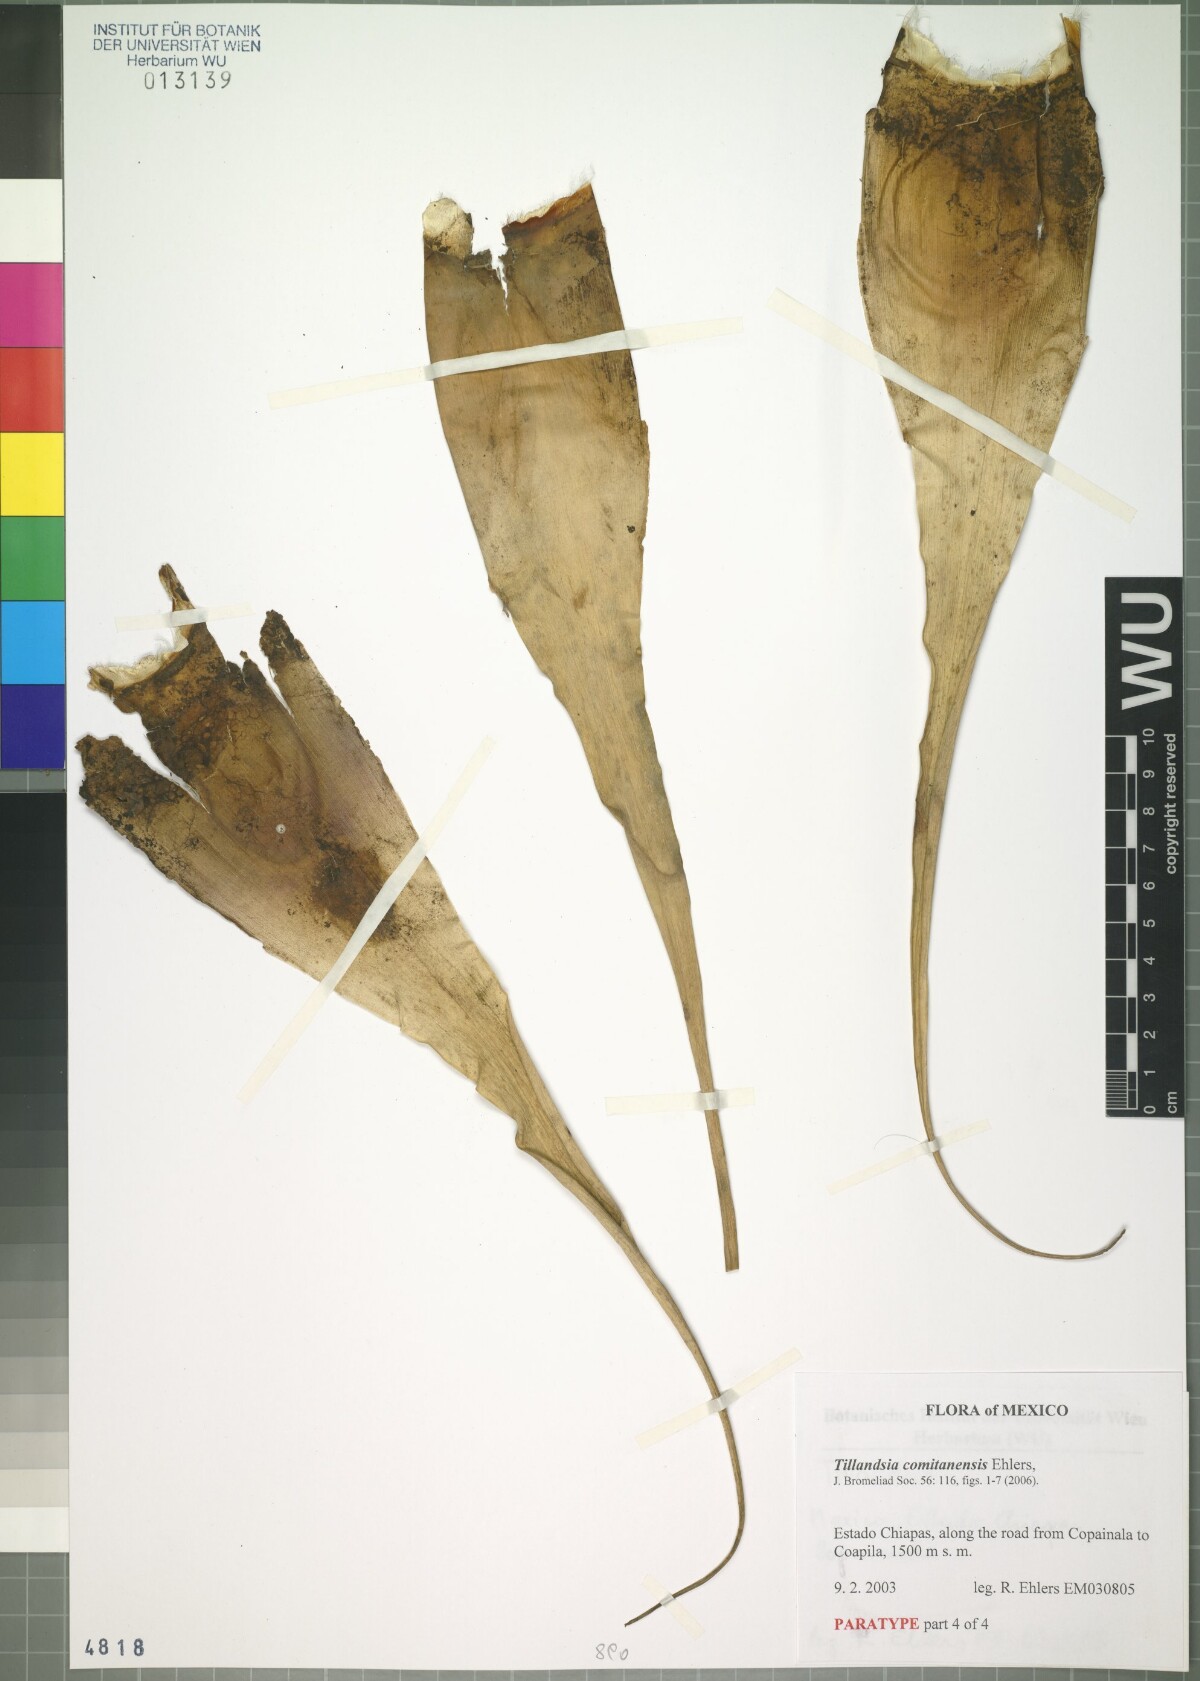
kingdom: Plantae
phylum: Tracheophyta
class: Liliopsida
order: Poales
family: Bromeliaceae
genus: Tillandsia
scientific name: Tillandsia comitanensis
